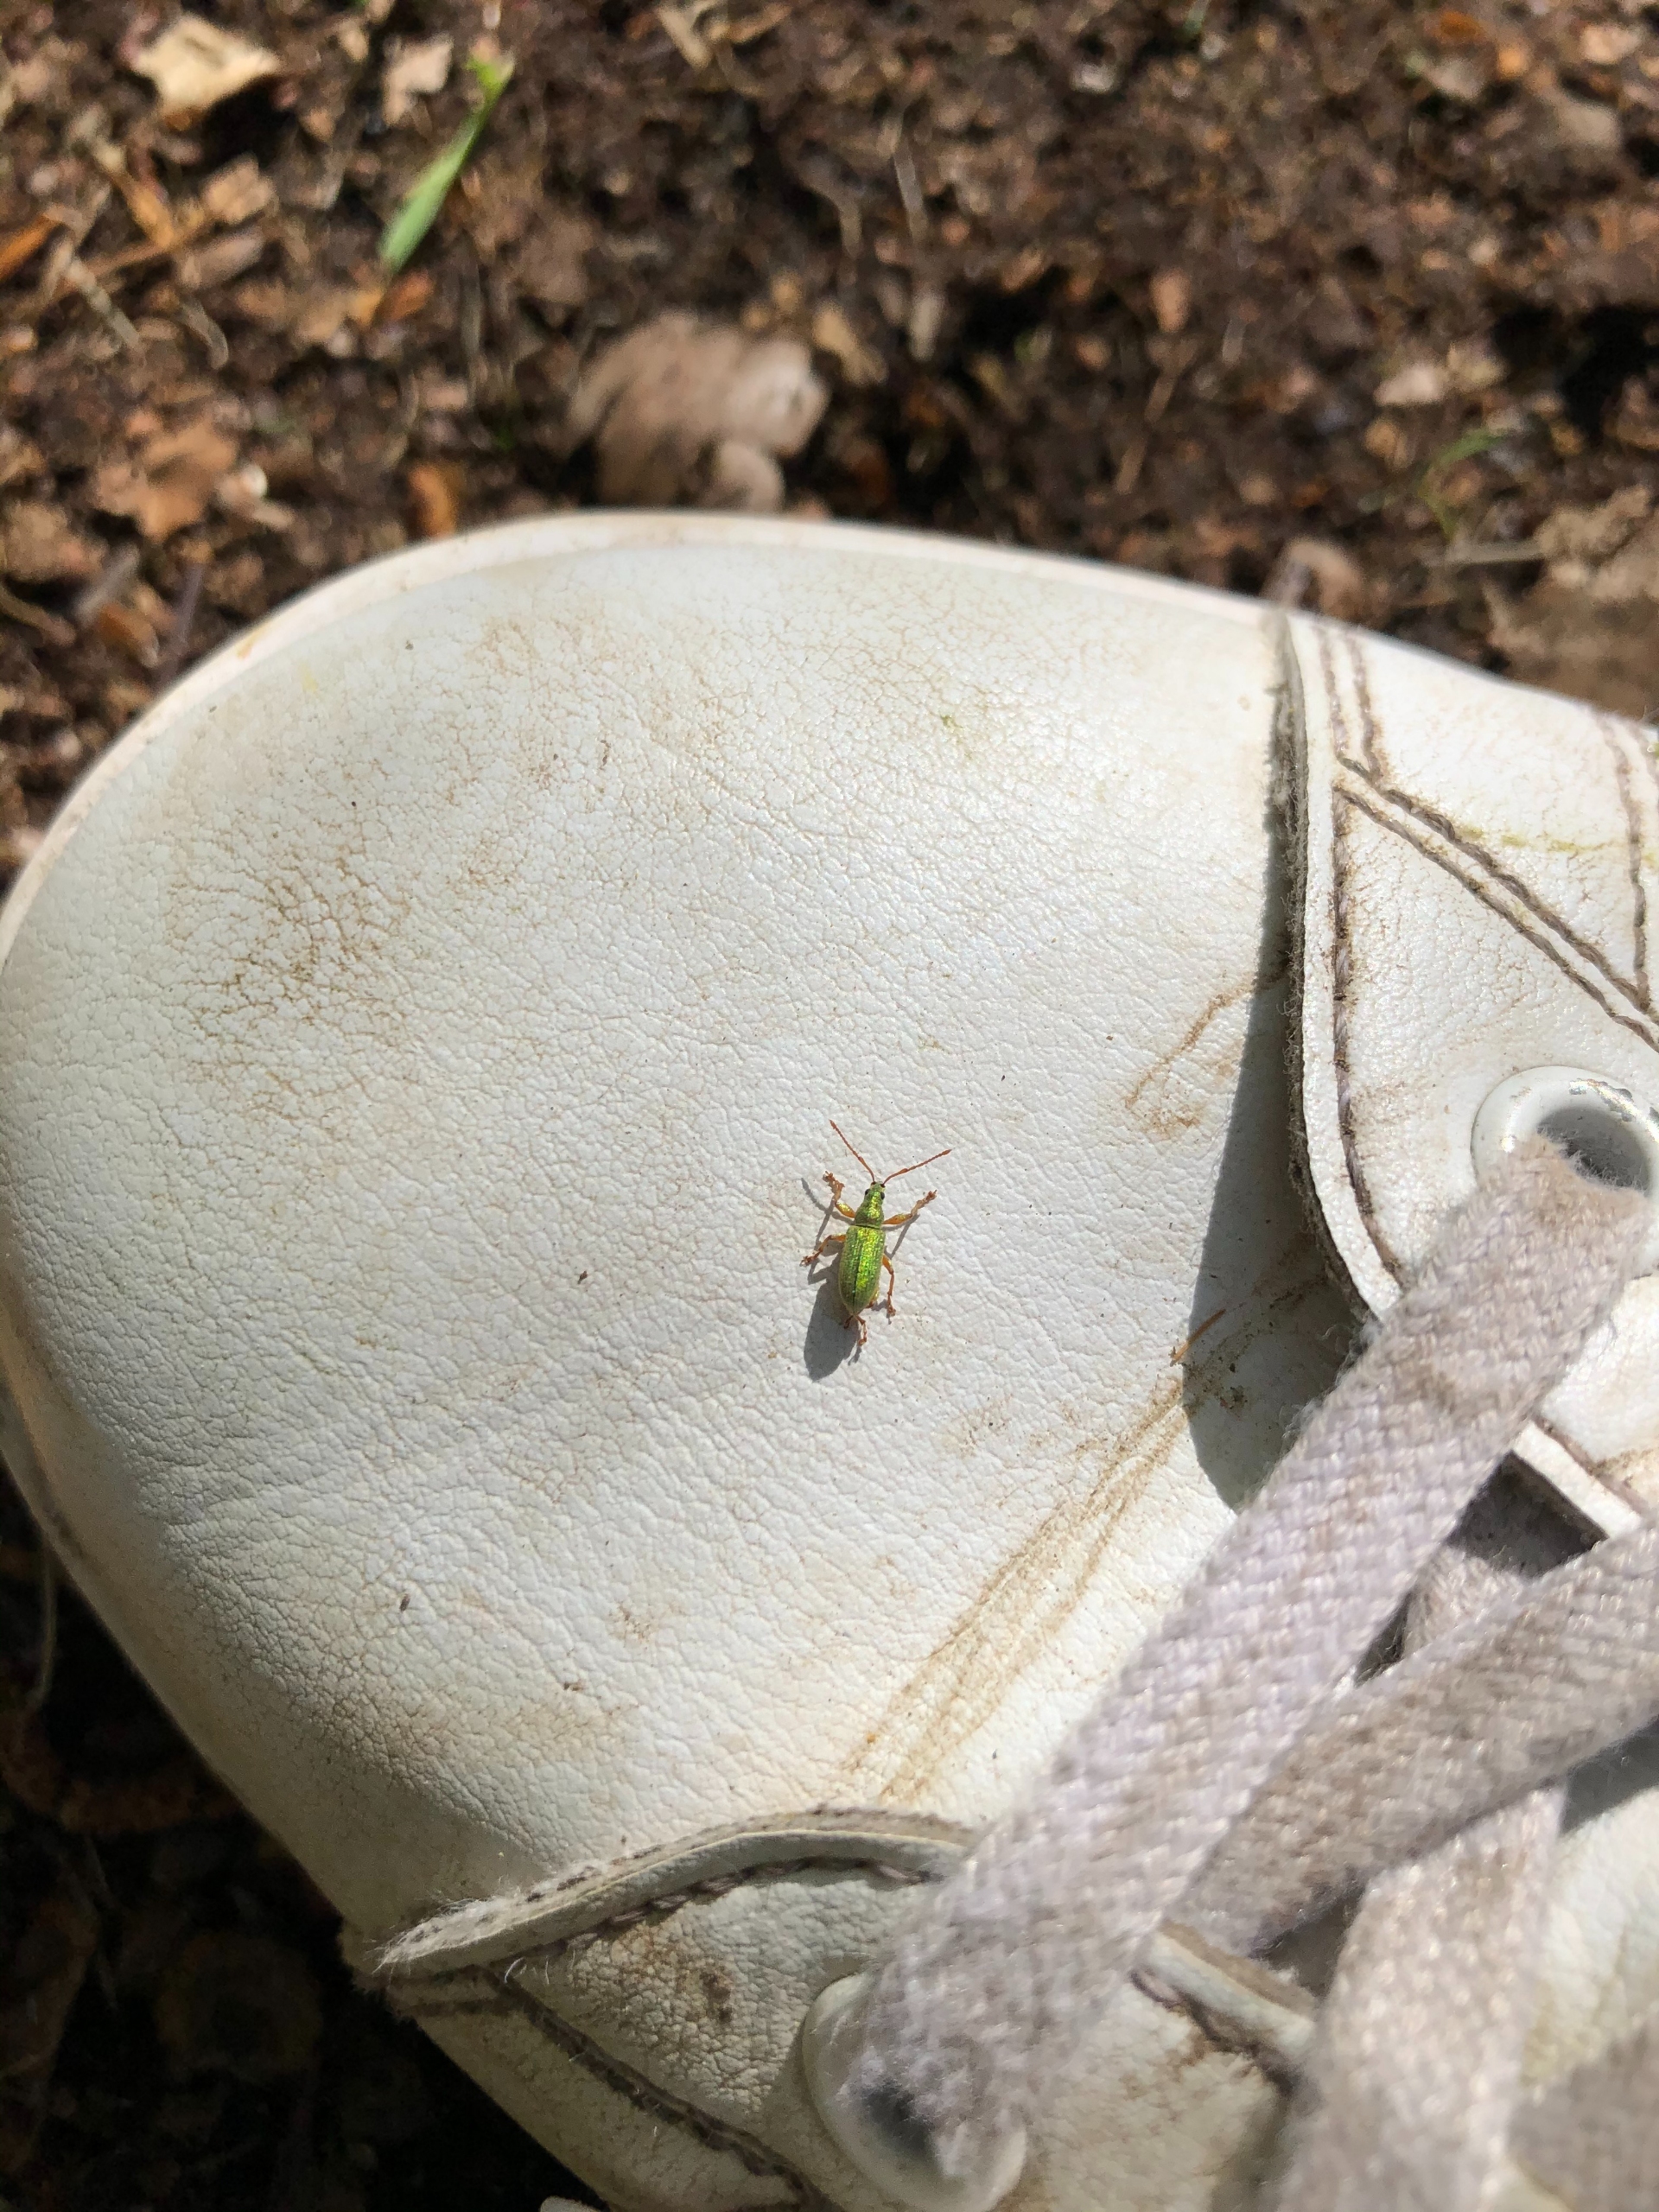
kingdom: Animalia
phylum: Arthropoda
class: Insecta
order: Coleoptera
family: Curculionidae
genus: Phyllobius
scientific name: Phyllobius argentatus
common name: Bøgeløvsnudebille
